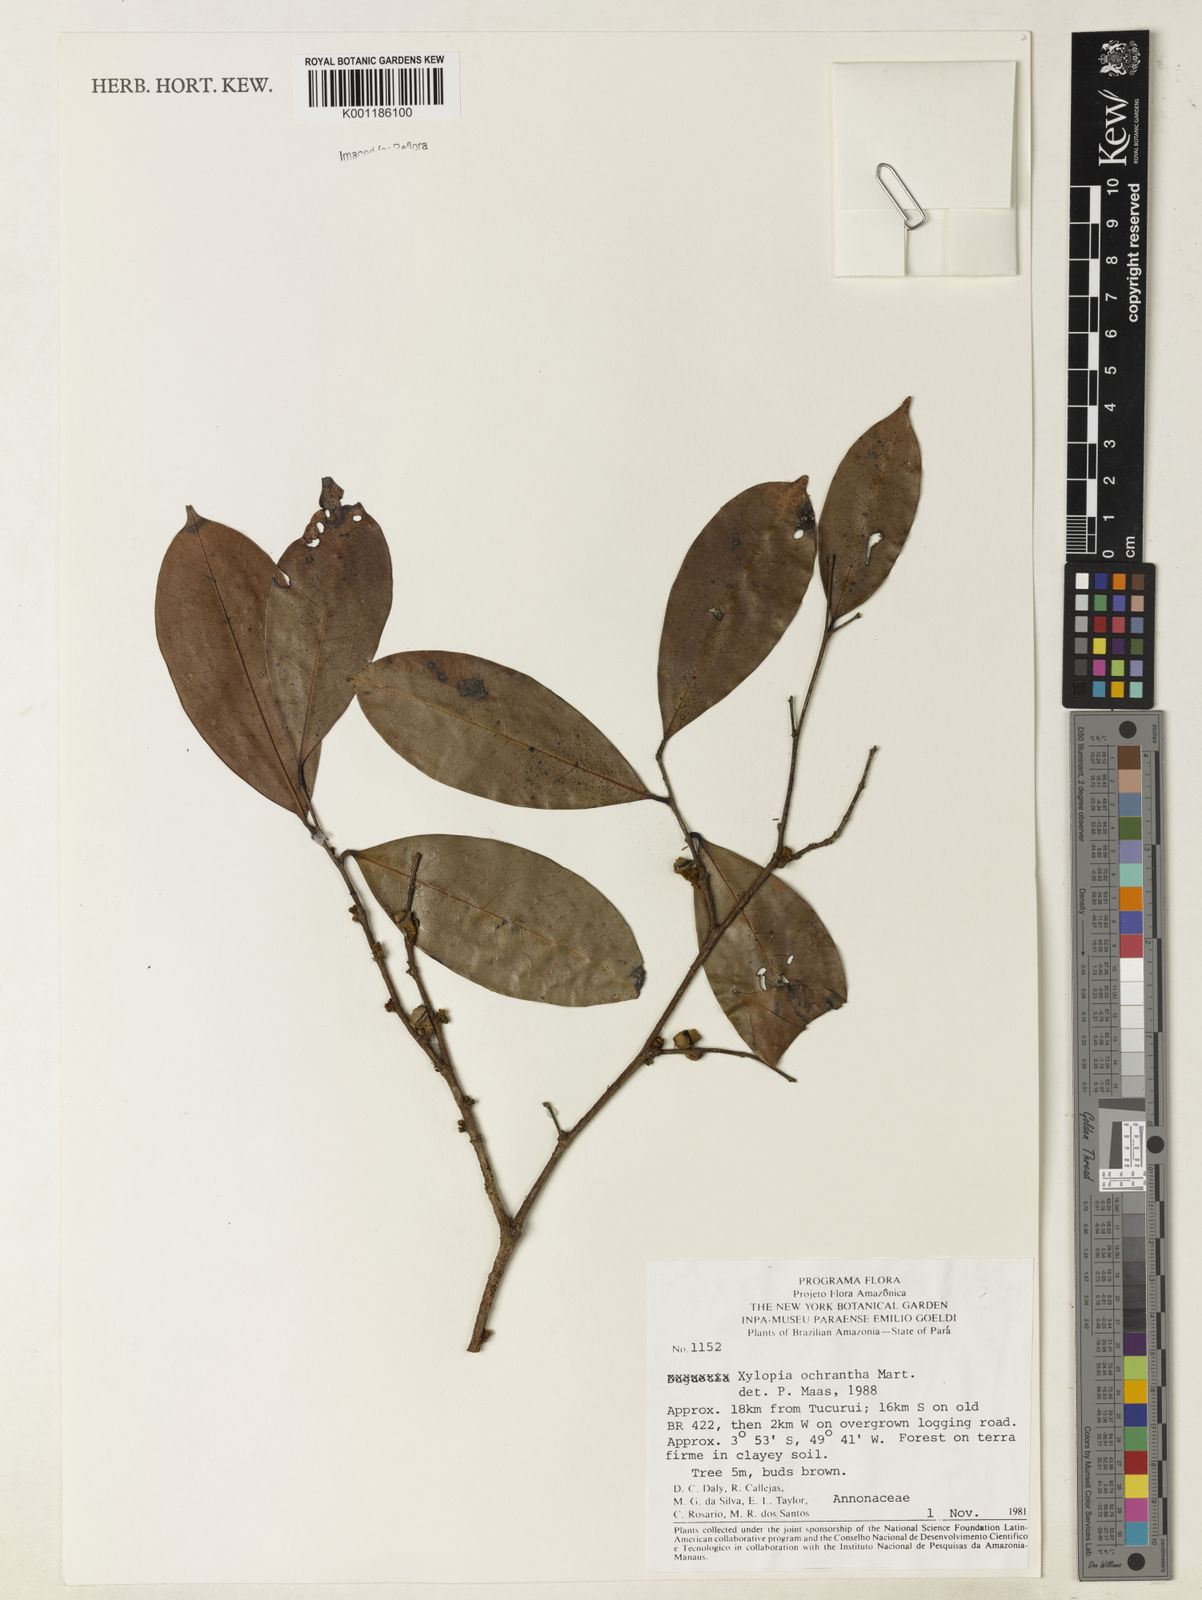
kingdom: Plantae
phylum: Tracheophyta
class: Magnoliopsida
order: Magnoliales
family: Annonaceae
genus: Xylopia
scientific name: Xylopia ochrantha
